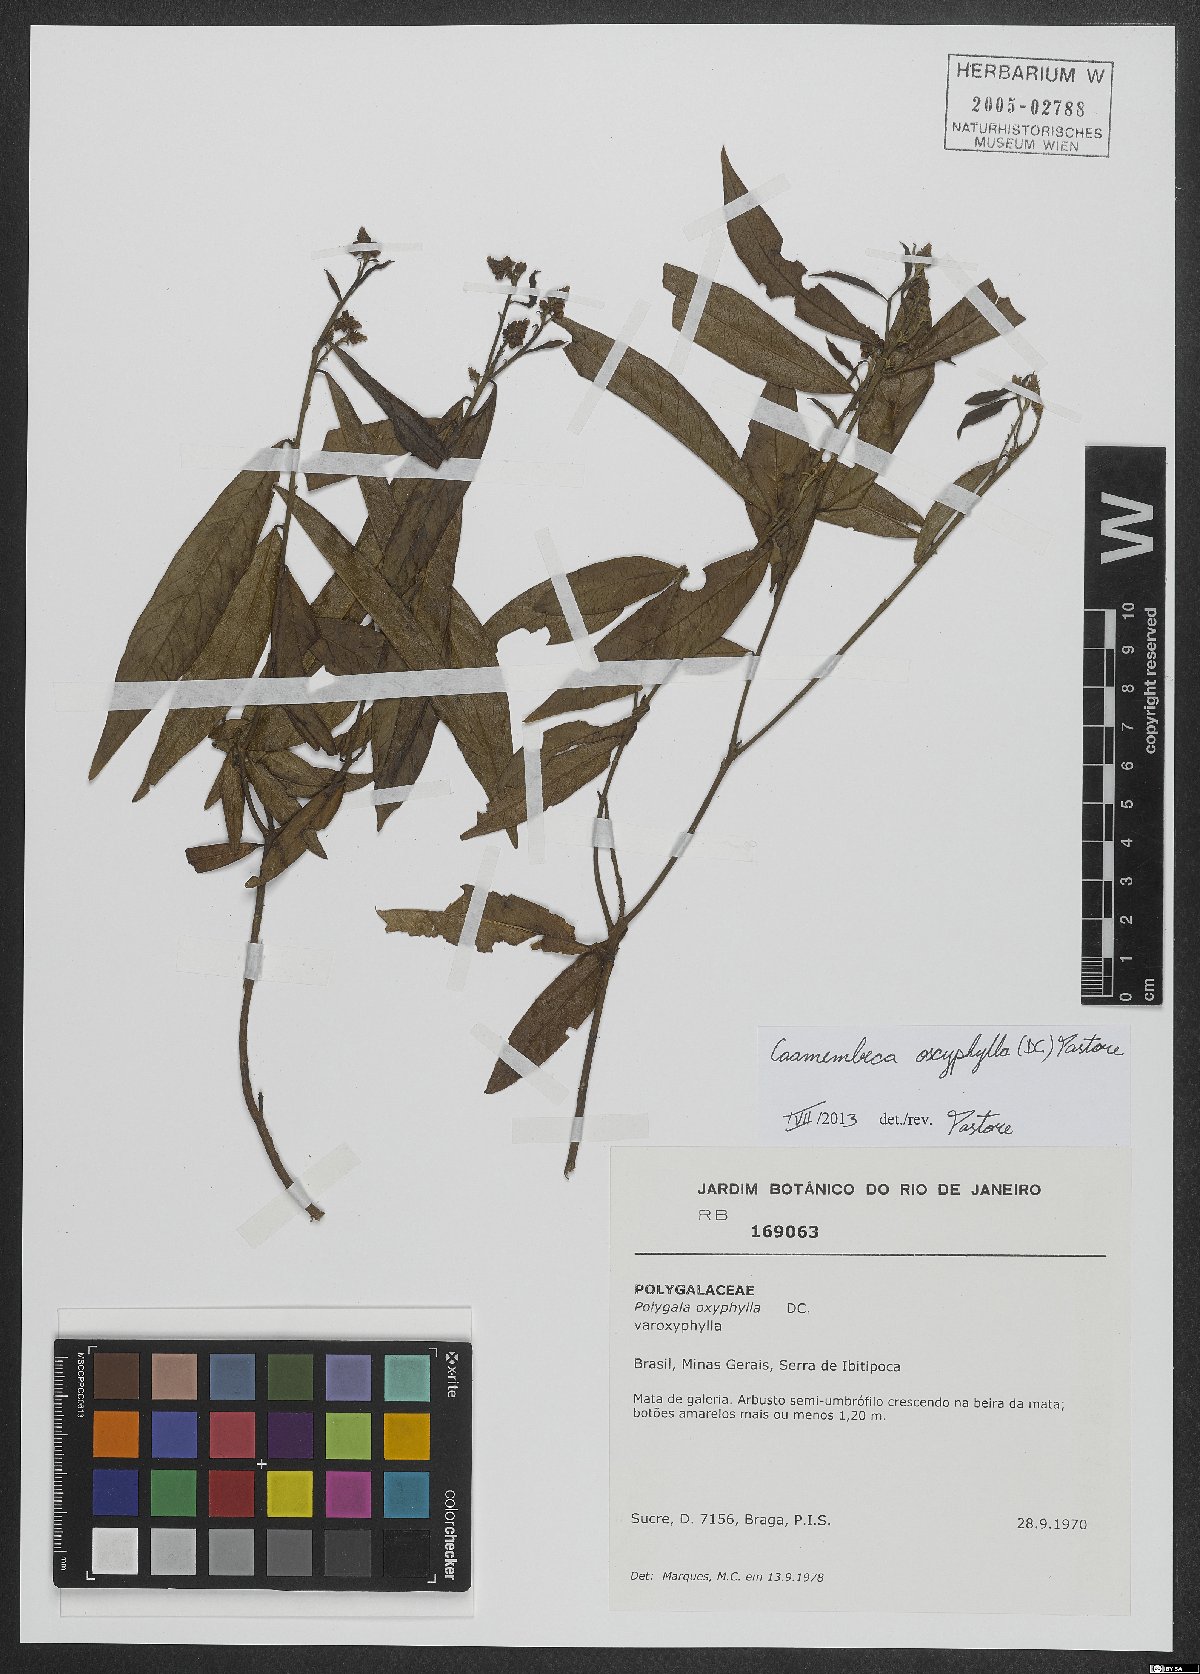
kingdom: Plantae
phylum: Tracheophyta
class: Magnoliopsida
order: Fabales
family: Polygalaceae
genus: Caamembeca
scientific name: Caamembeca oxyphylla
